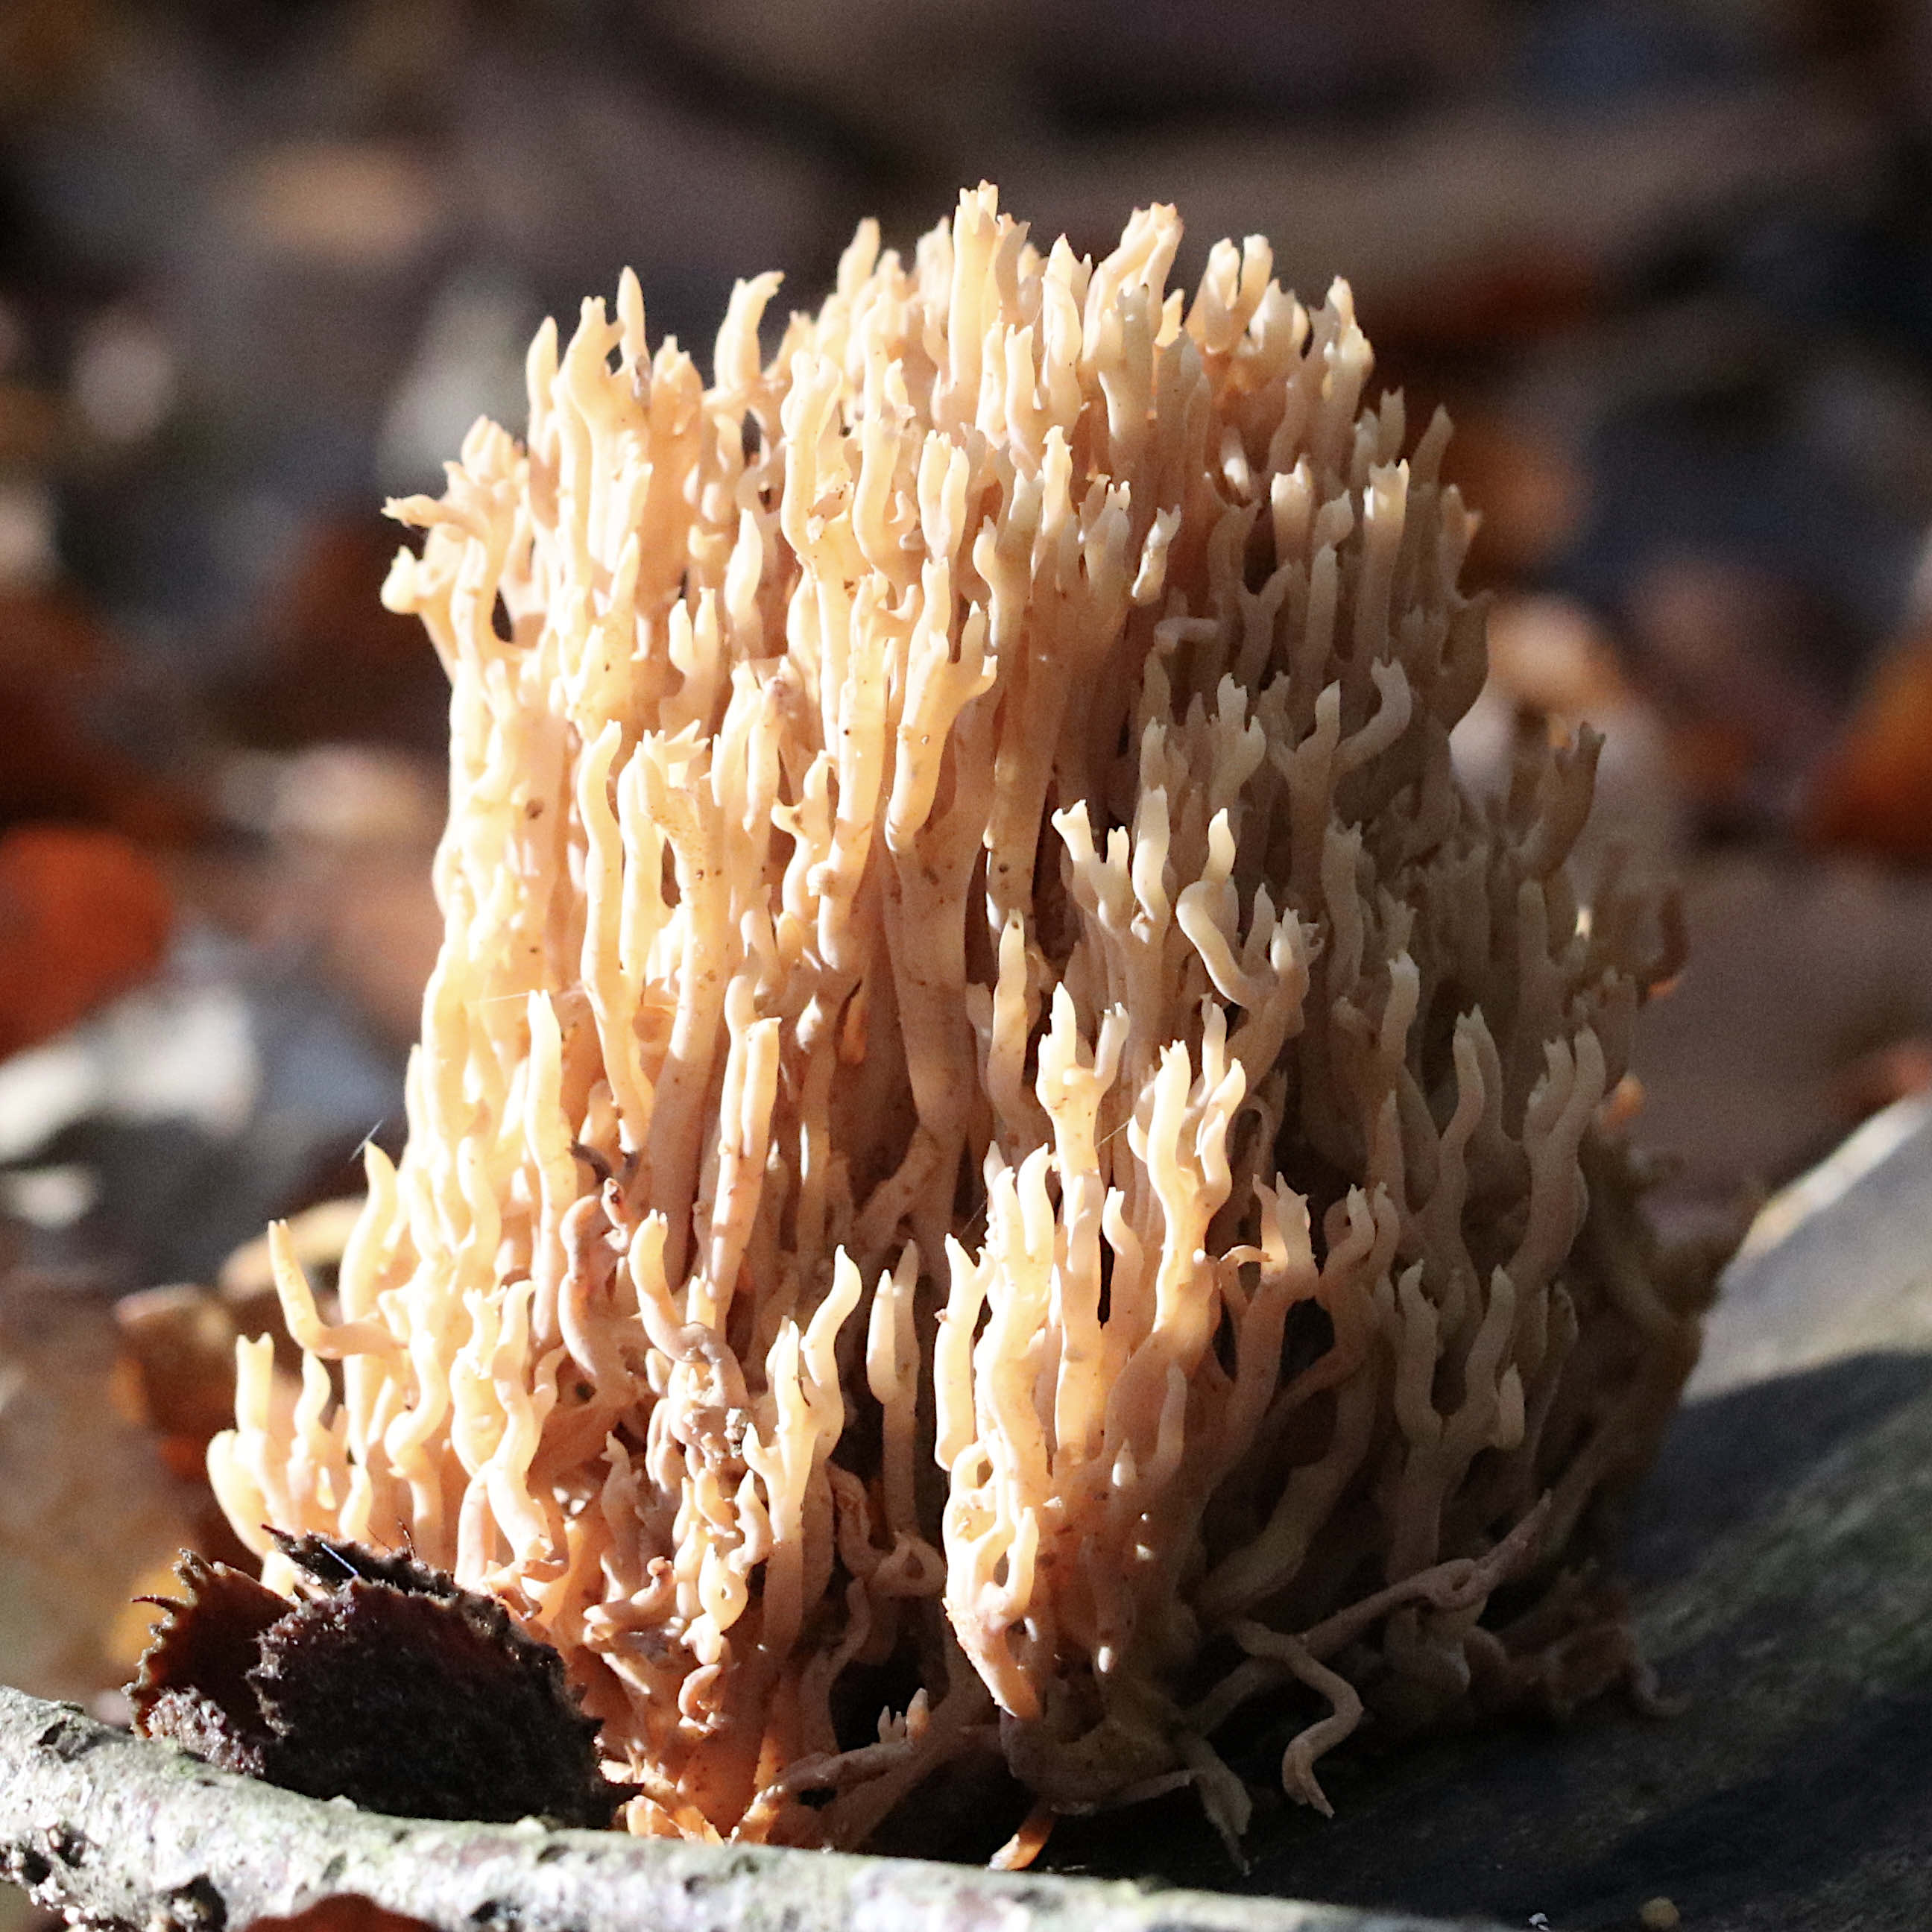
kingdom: Fungi
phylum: Basidiomycota
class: Agaricomycetes
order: Gomphales
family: Gomphaceae
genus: Ramaria
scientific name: Ramaria stricta
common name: rank koralsvamp
